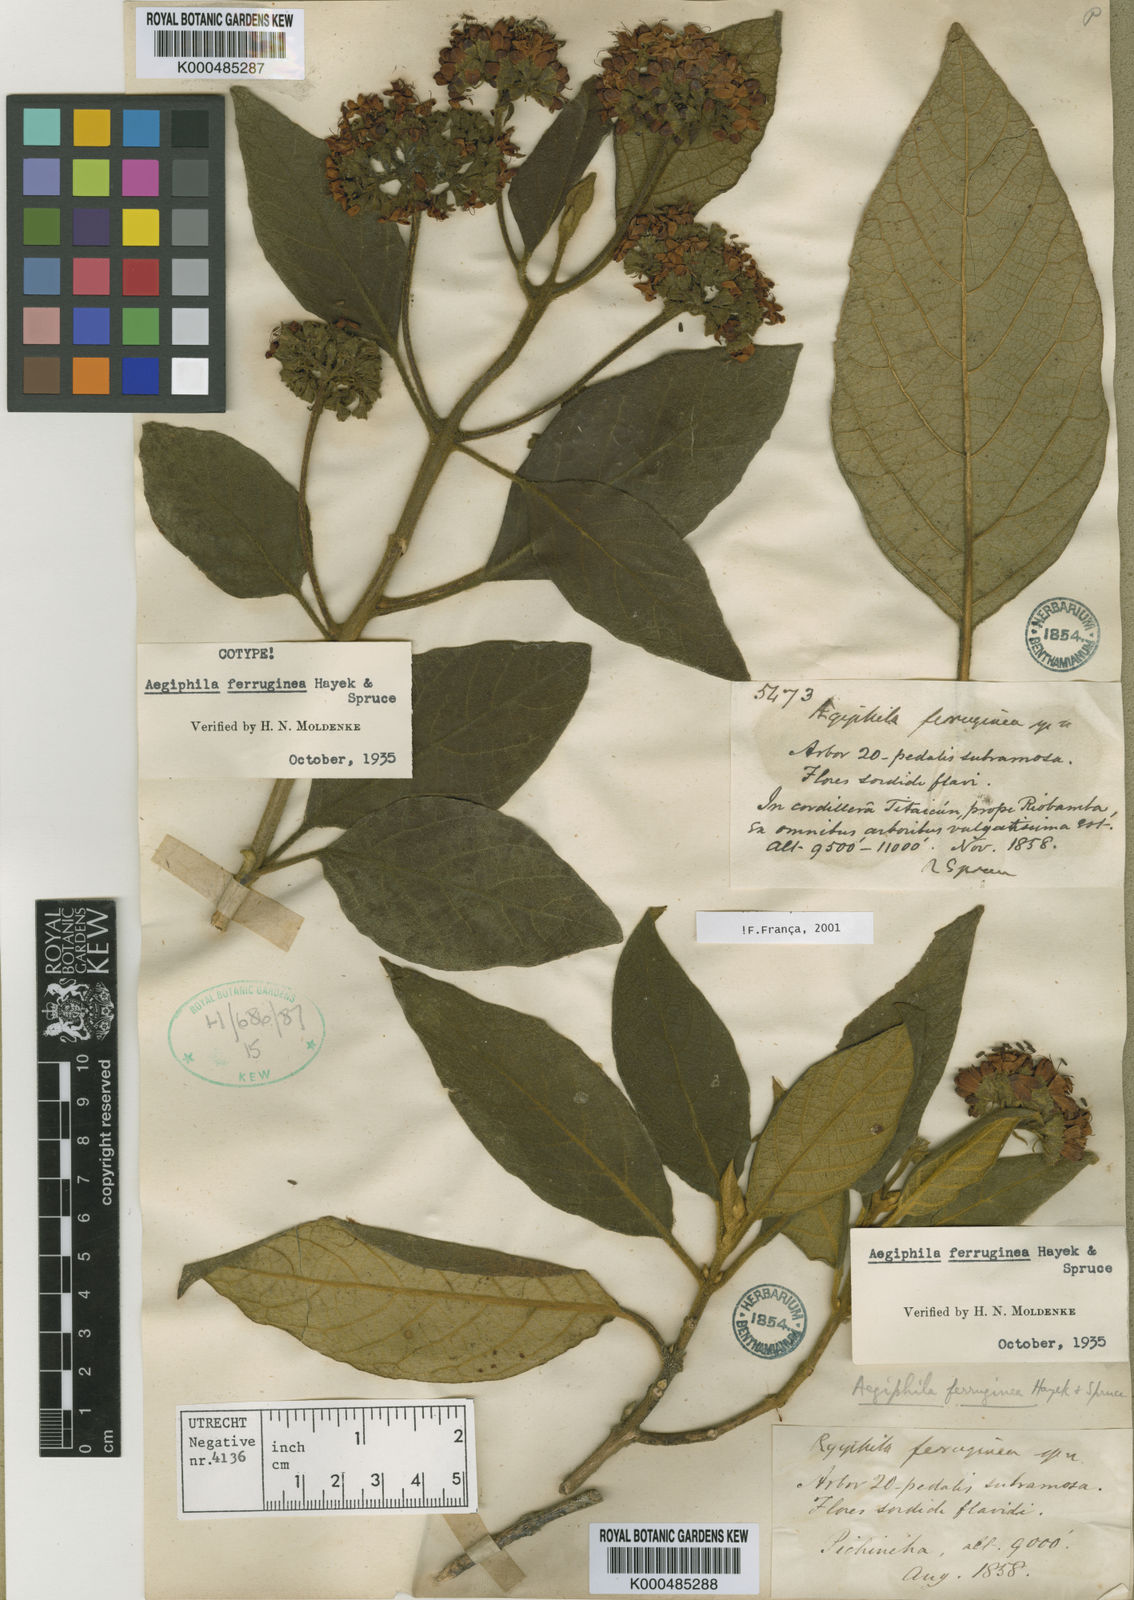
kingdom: Plantae
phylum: Tracheophyta
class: Magnoliopsida
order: Lamiales
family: Lamiaceae
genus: Aegiphila
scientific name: Aegiphila ferruginea
